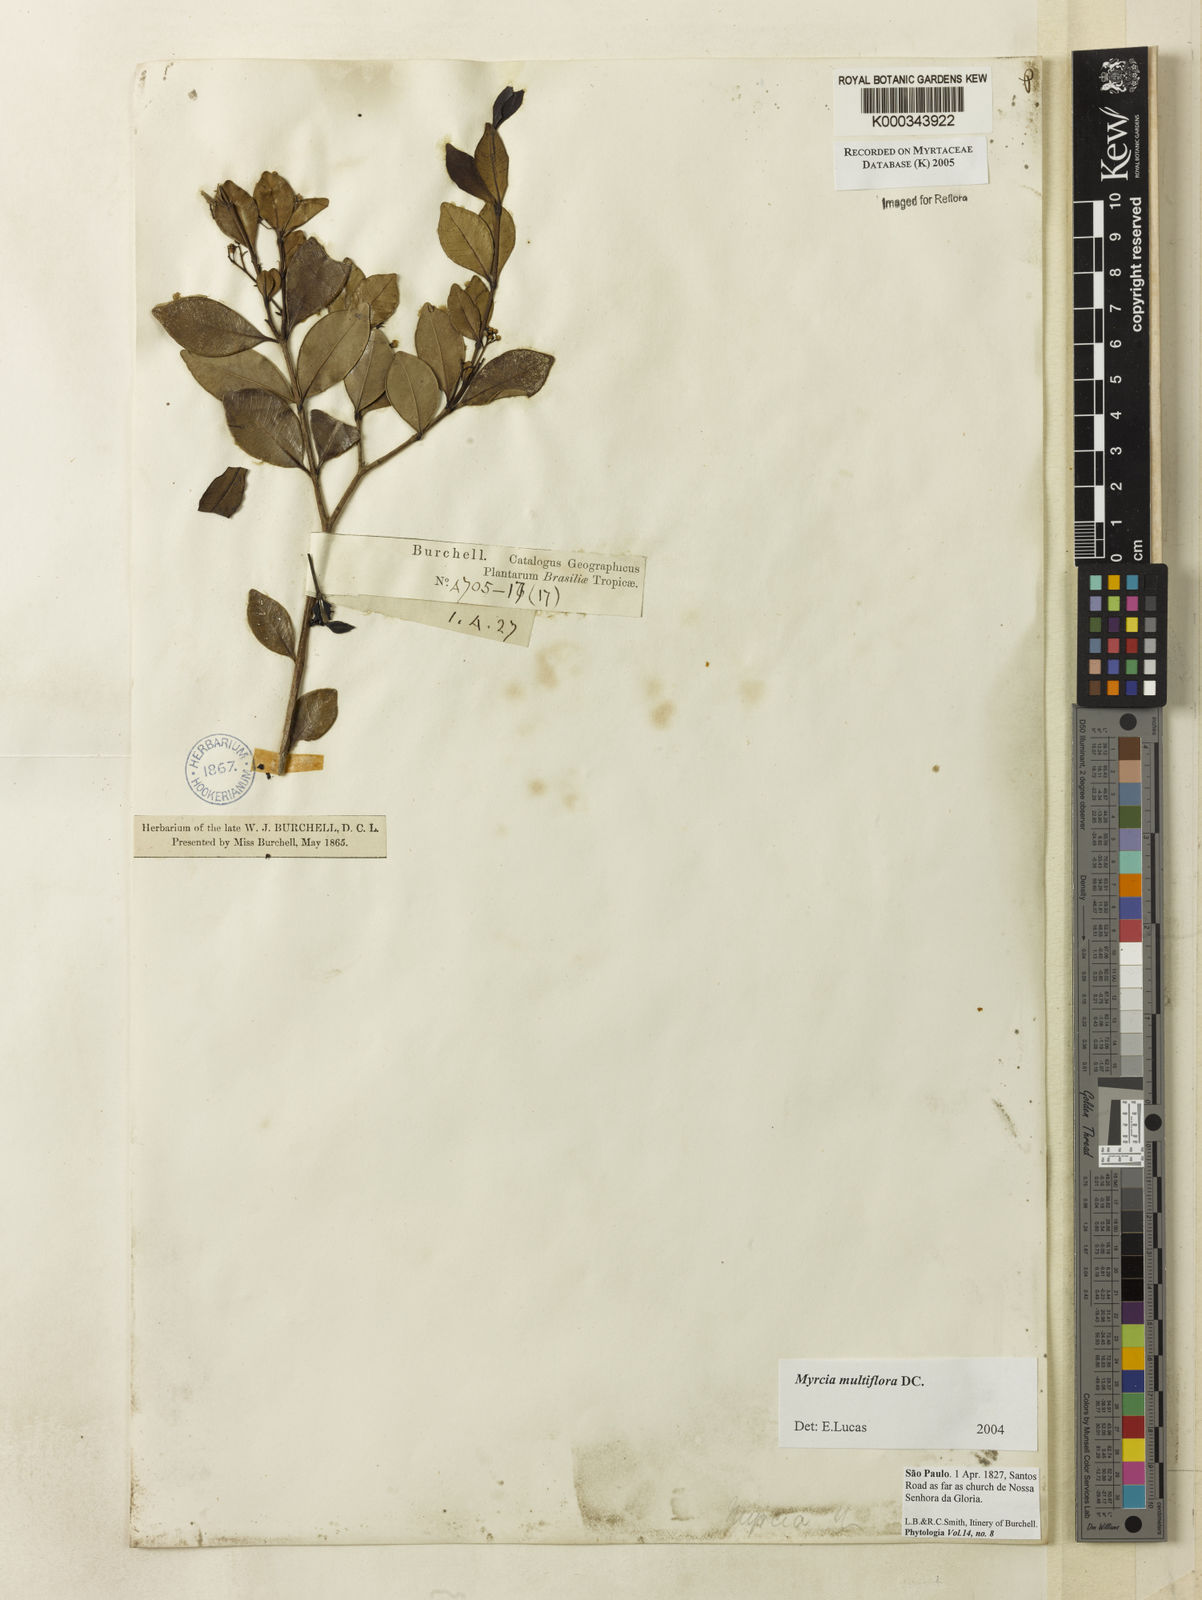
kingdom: Plantae
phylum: Tracheophyta
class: Magnoliopsida
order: Myrtales
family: Myrtaceae
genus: Myrcia
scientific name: Myrcia multiflora
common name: Pedra hume
